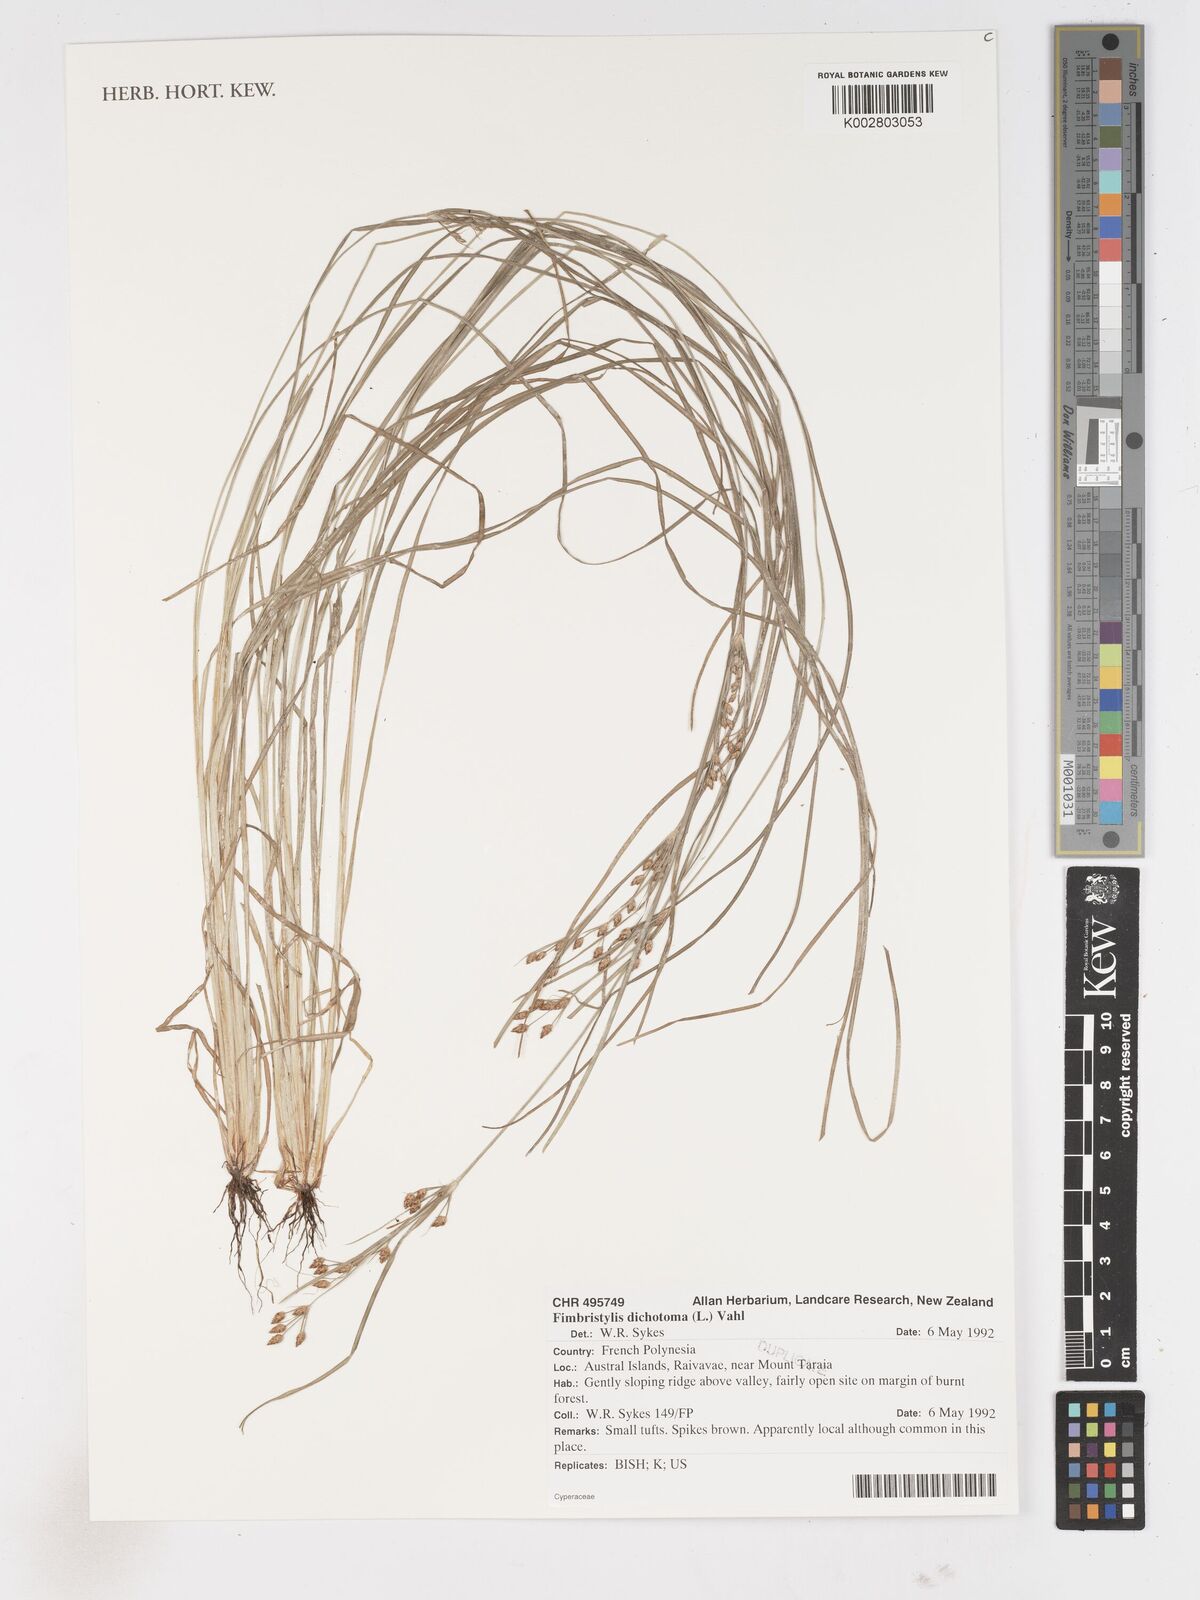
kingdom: Plantae
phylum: Tracheophyta
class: Liliopsida
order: Poales
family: Cyperaceae
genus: Fimbristylis
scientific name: Fimbristylis dichotoma
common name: Forked fimbry
